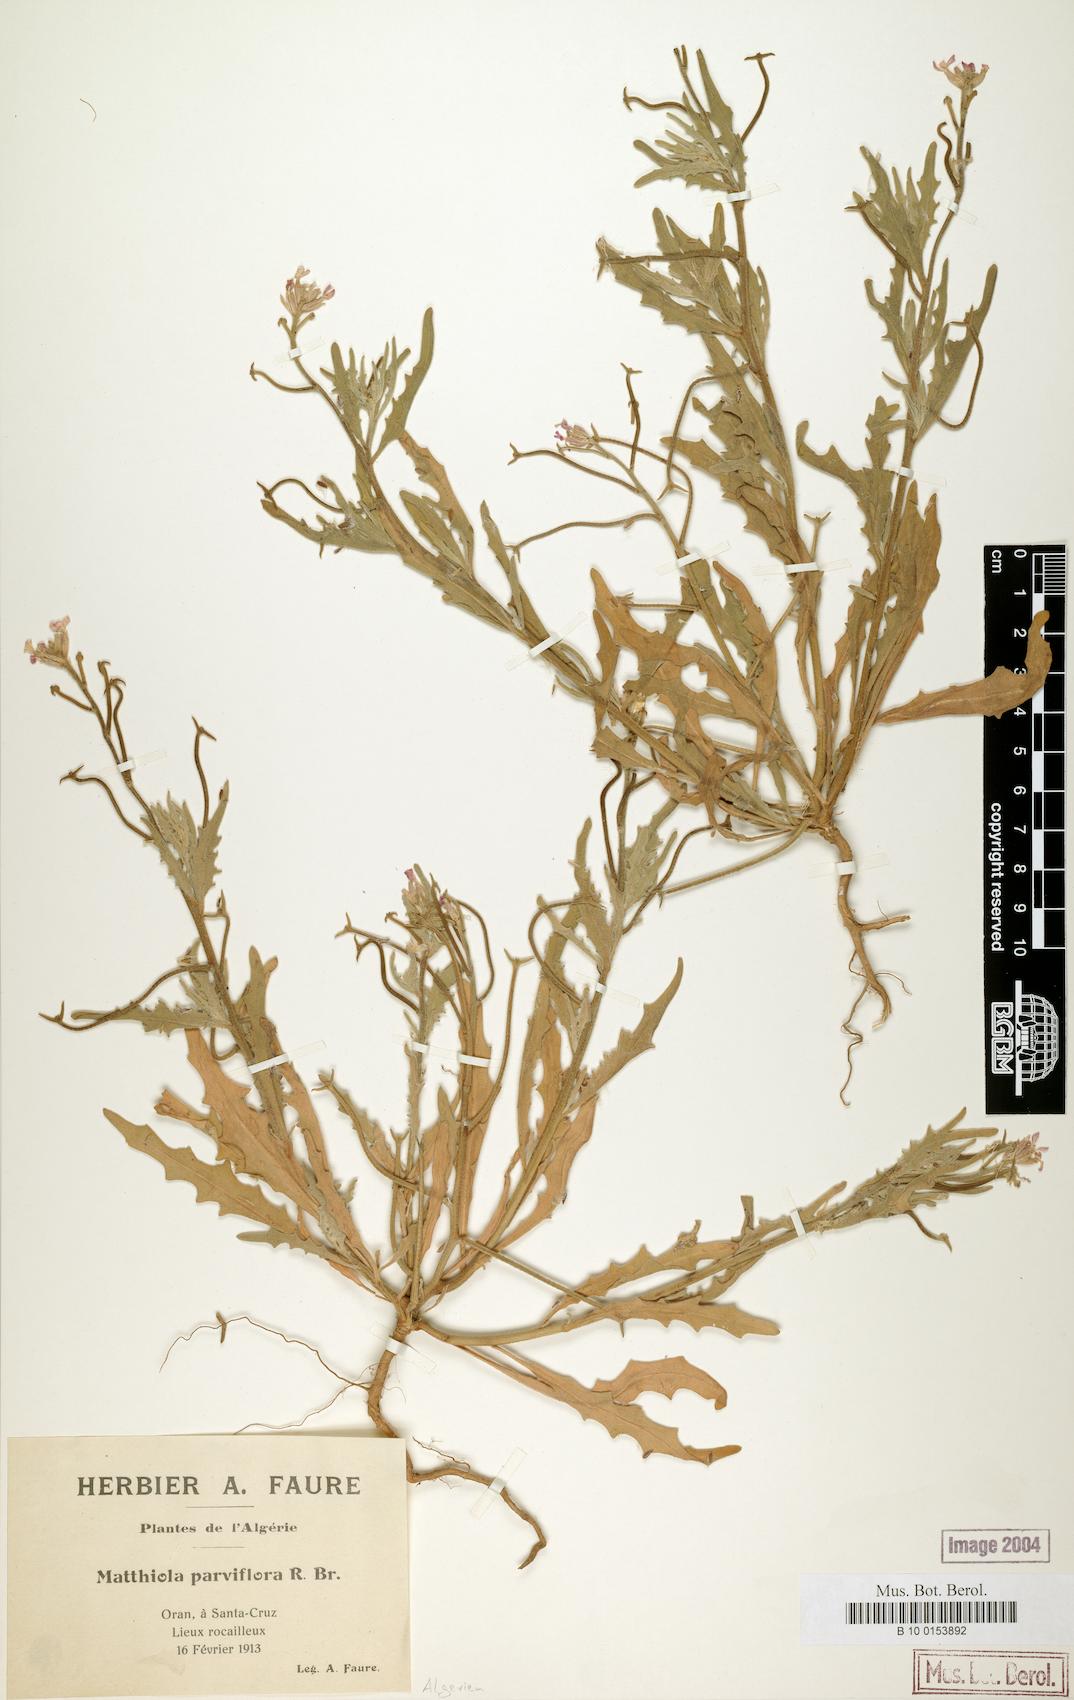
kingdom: Plantae
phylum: Tracheophyta
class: Magnoliopsida
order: Brassicales
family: Brassicaceae
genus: Matthiola
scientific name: Matthiola parviflora
